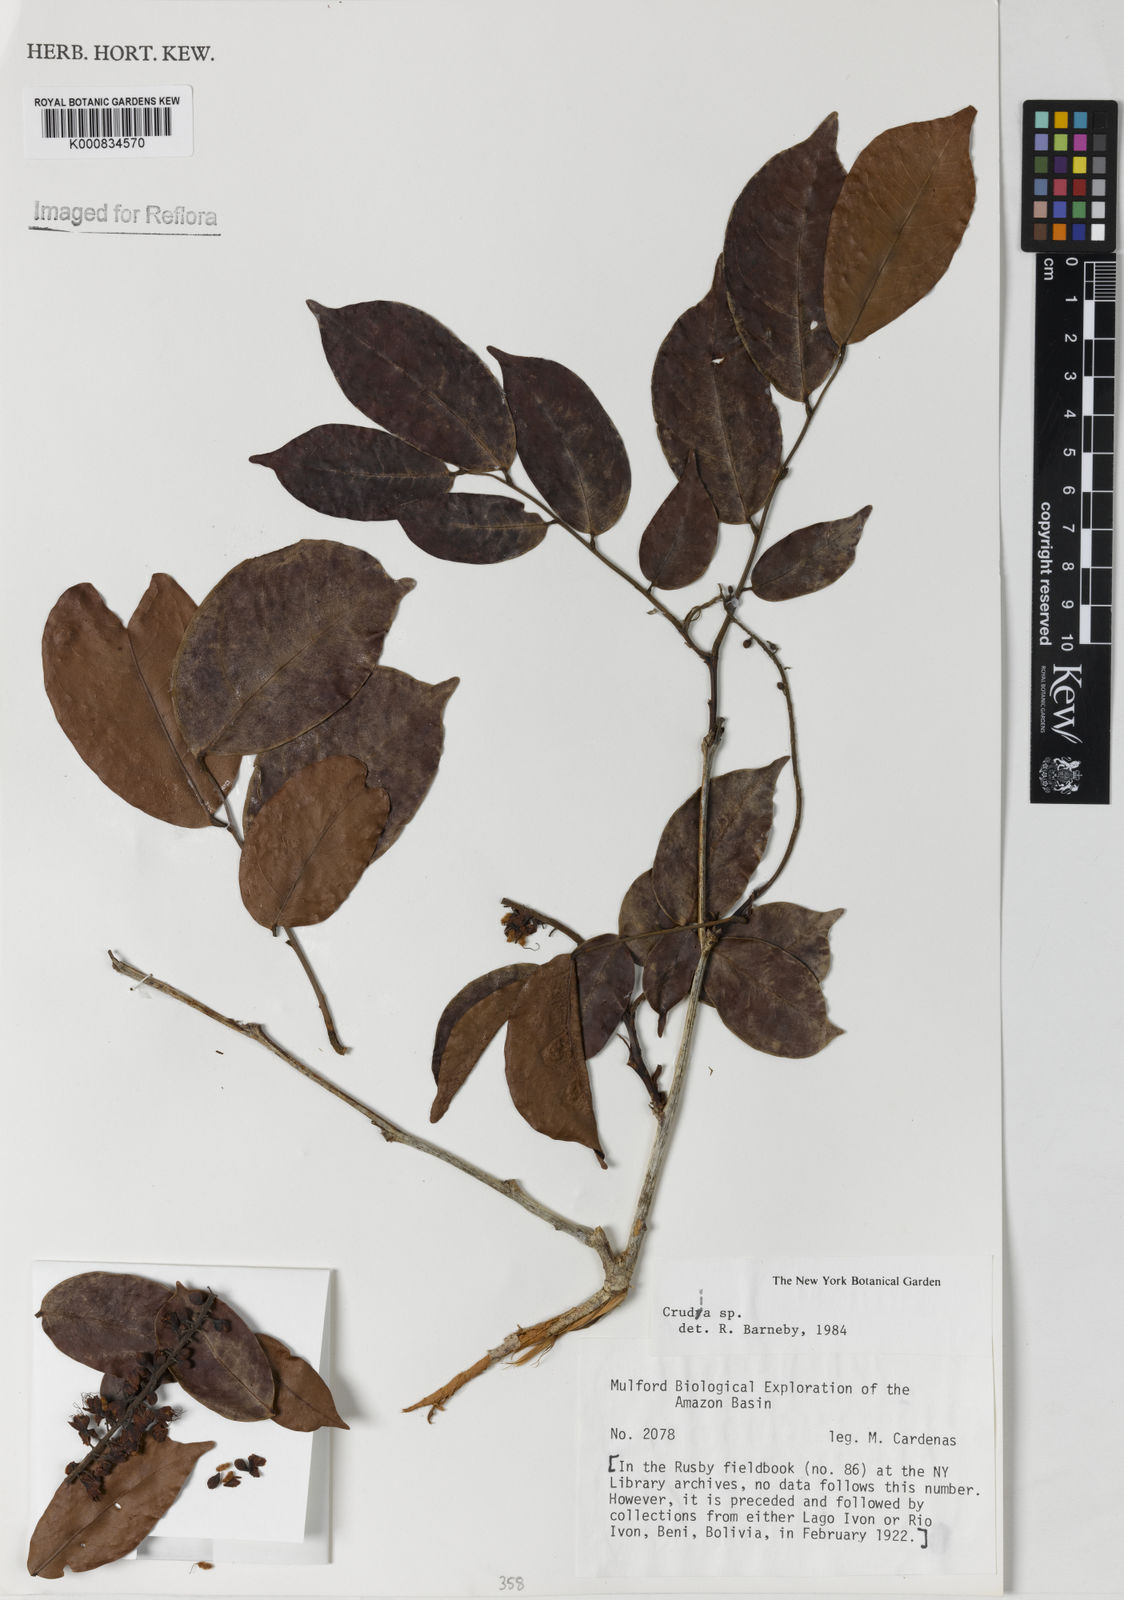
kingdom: Plantae
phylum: Tracheophyta
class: Magnoliopsida
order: Fabales
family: Fabaceae
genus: Crudia
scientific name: Crudia
